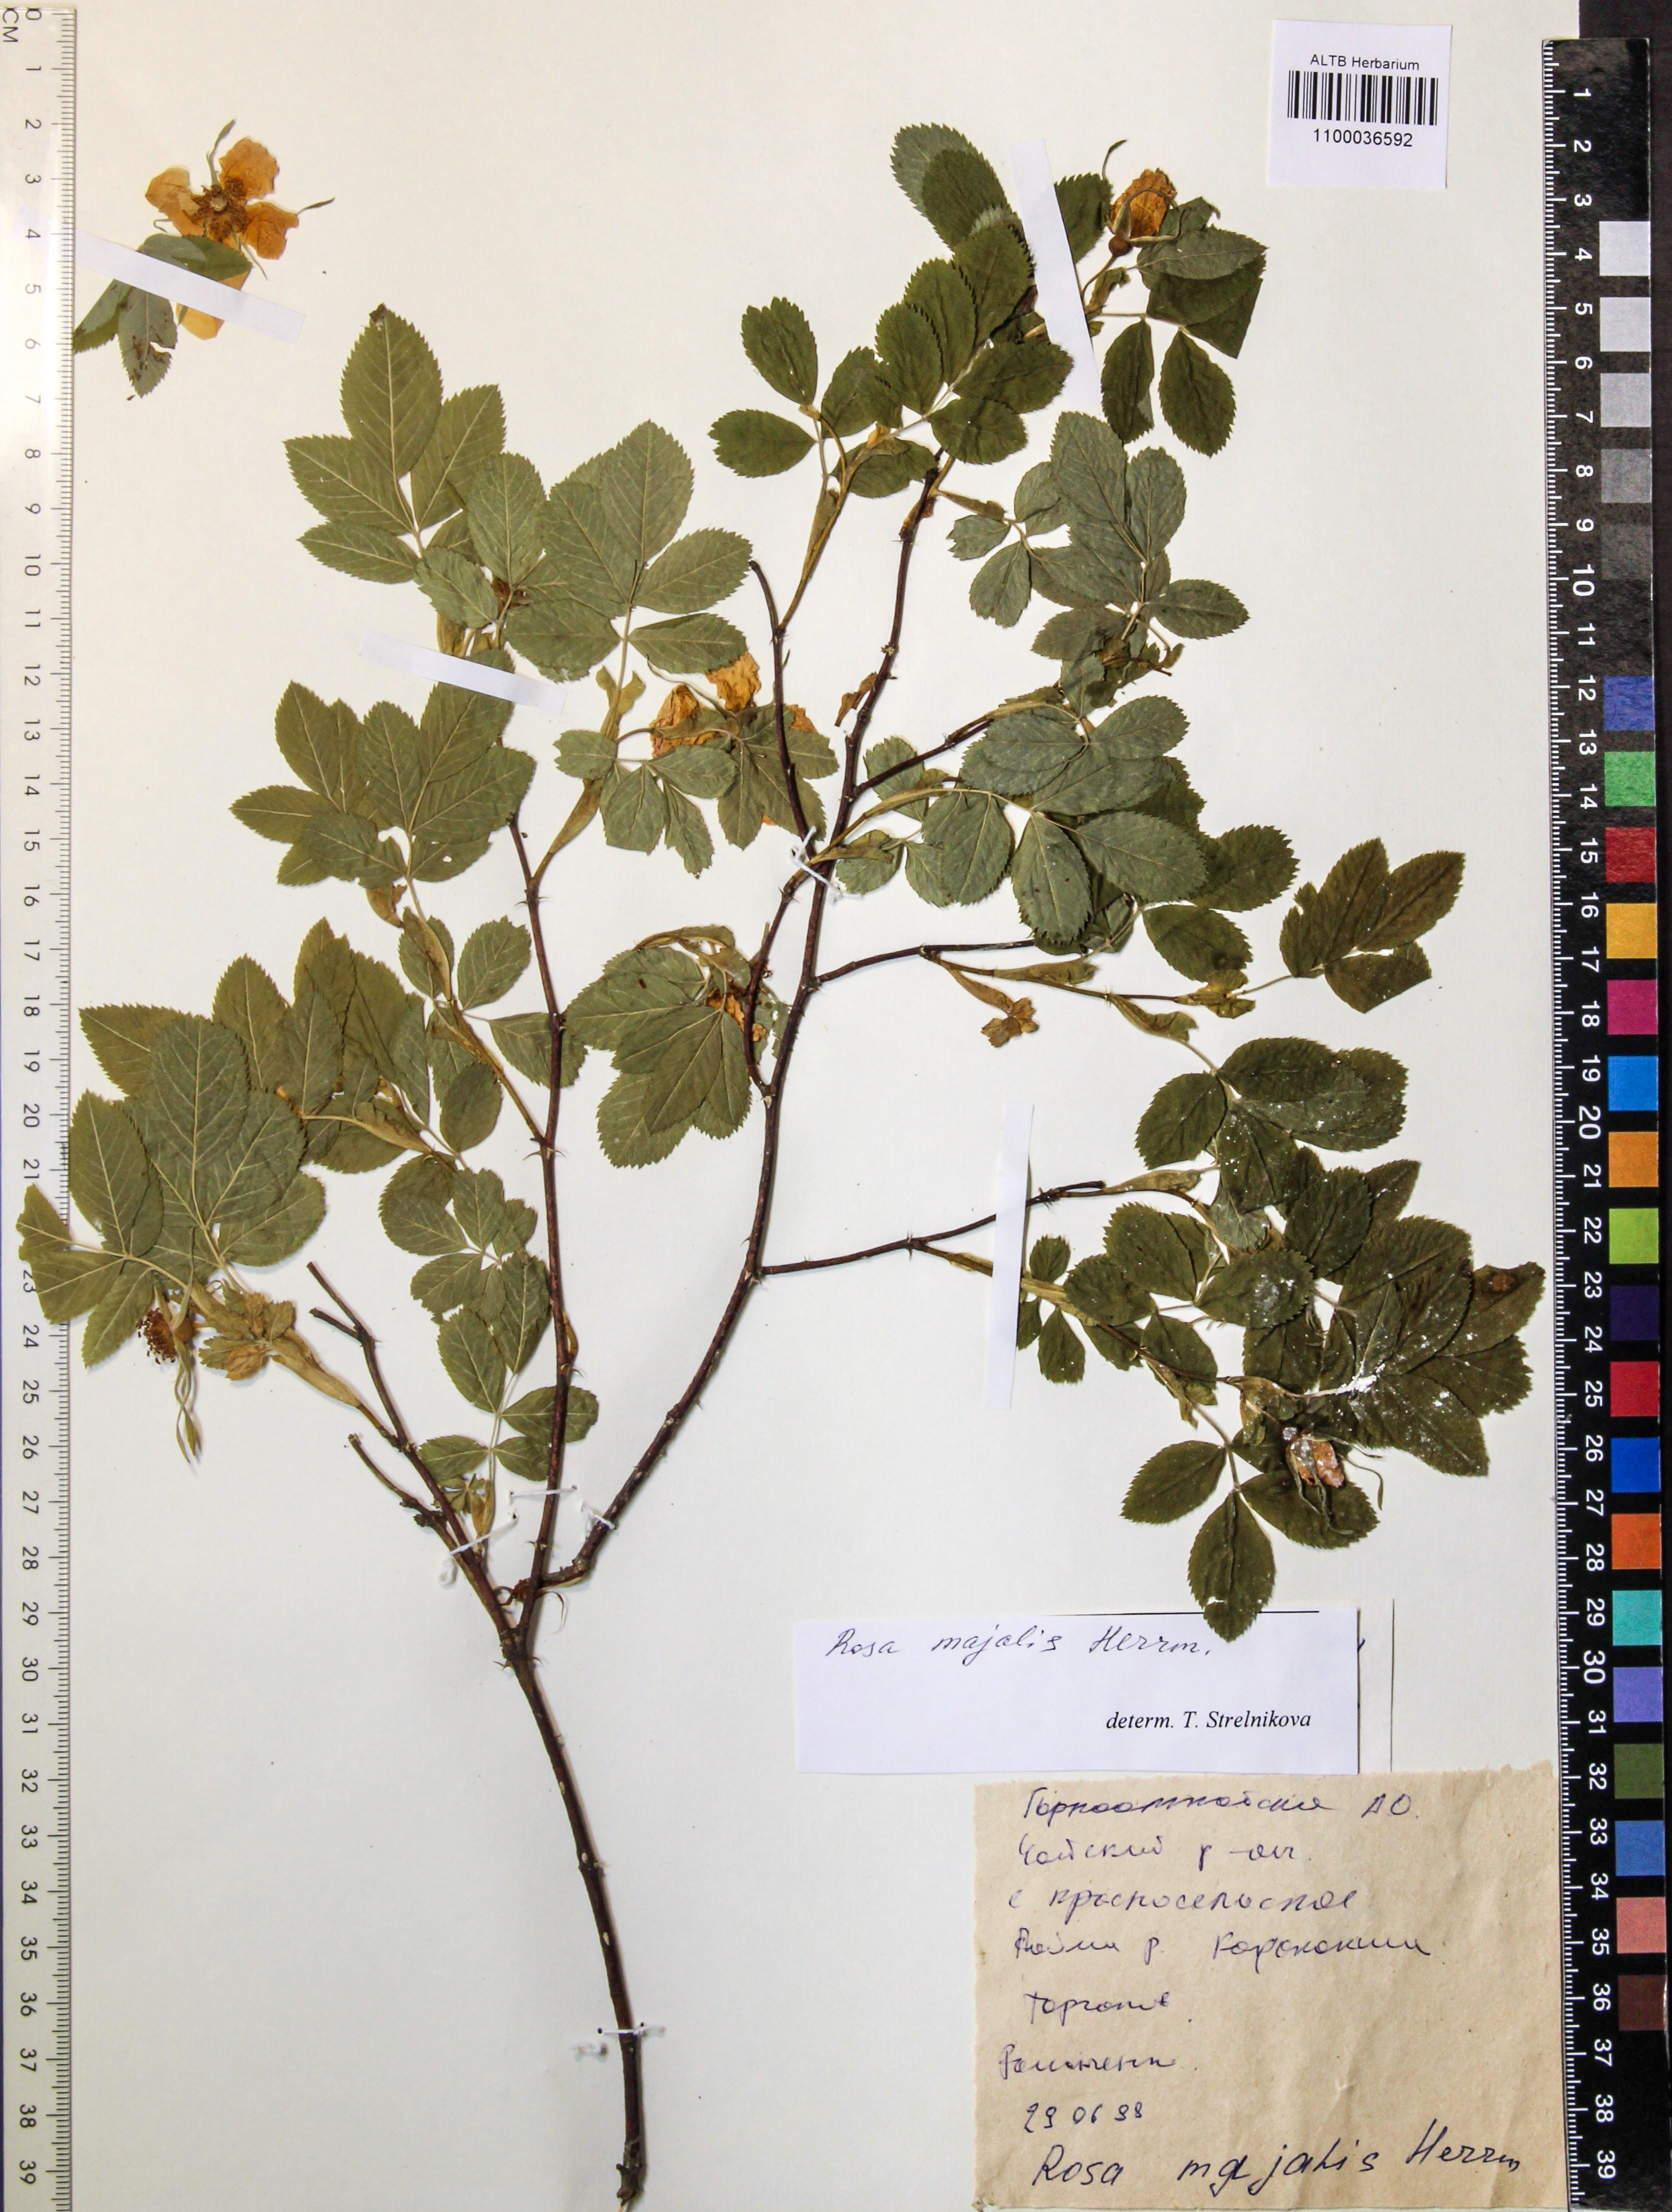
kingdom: Plantae
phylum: Tracheophyta
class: Magnoliopsida
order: Rosales
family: Rosaceae
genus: Rosa
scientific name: Rosa majalis
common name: Cinnamon rose
